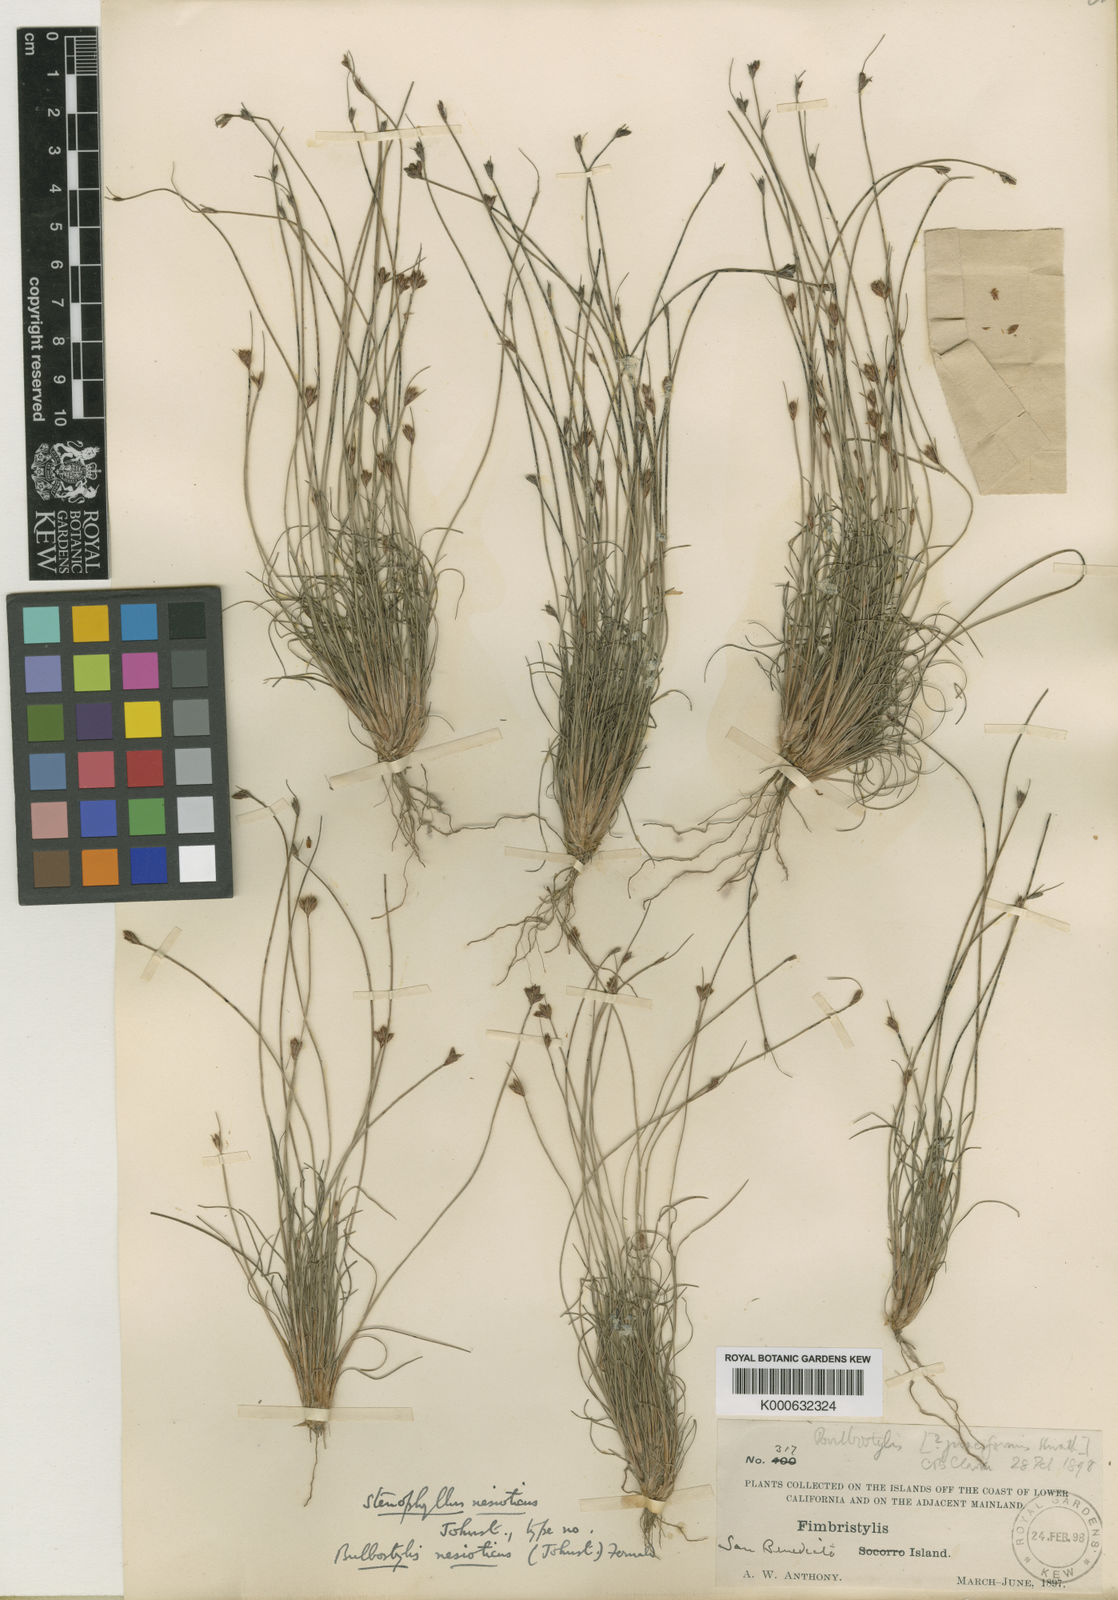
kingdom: Plantae
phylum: Tracheophyta
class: Liliopsida
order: Poales
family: Cyperaceae
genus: Bulbostylis
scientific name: Bulbostylis nesiotica
